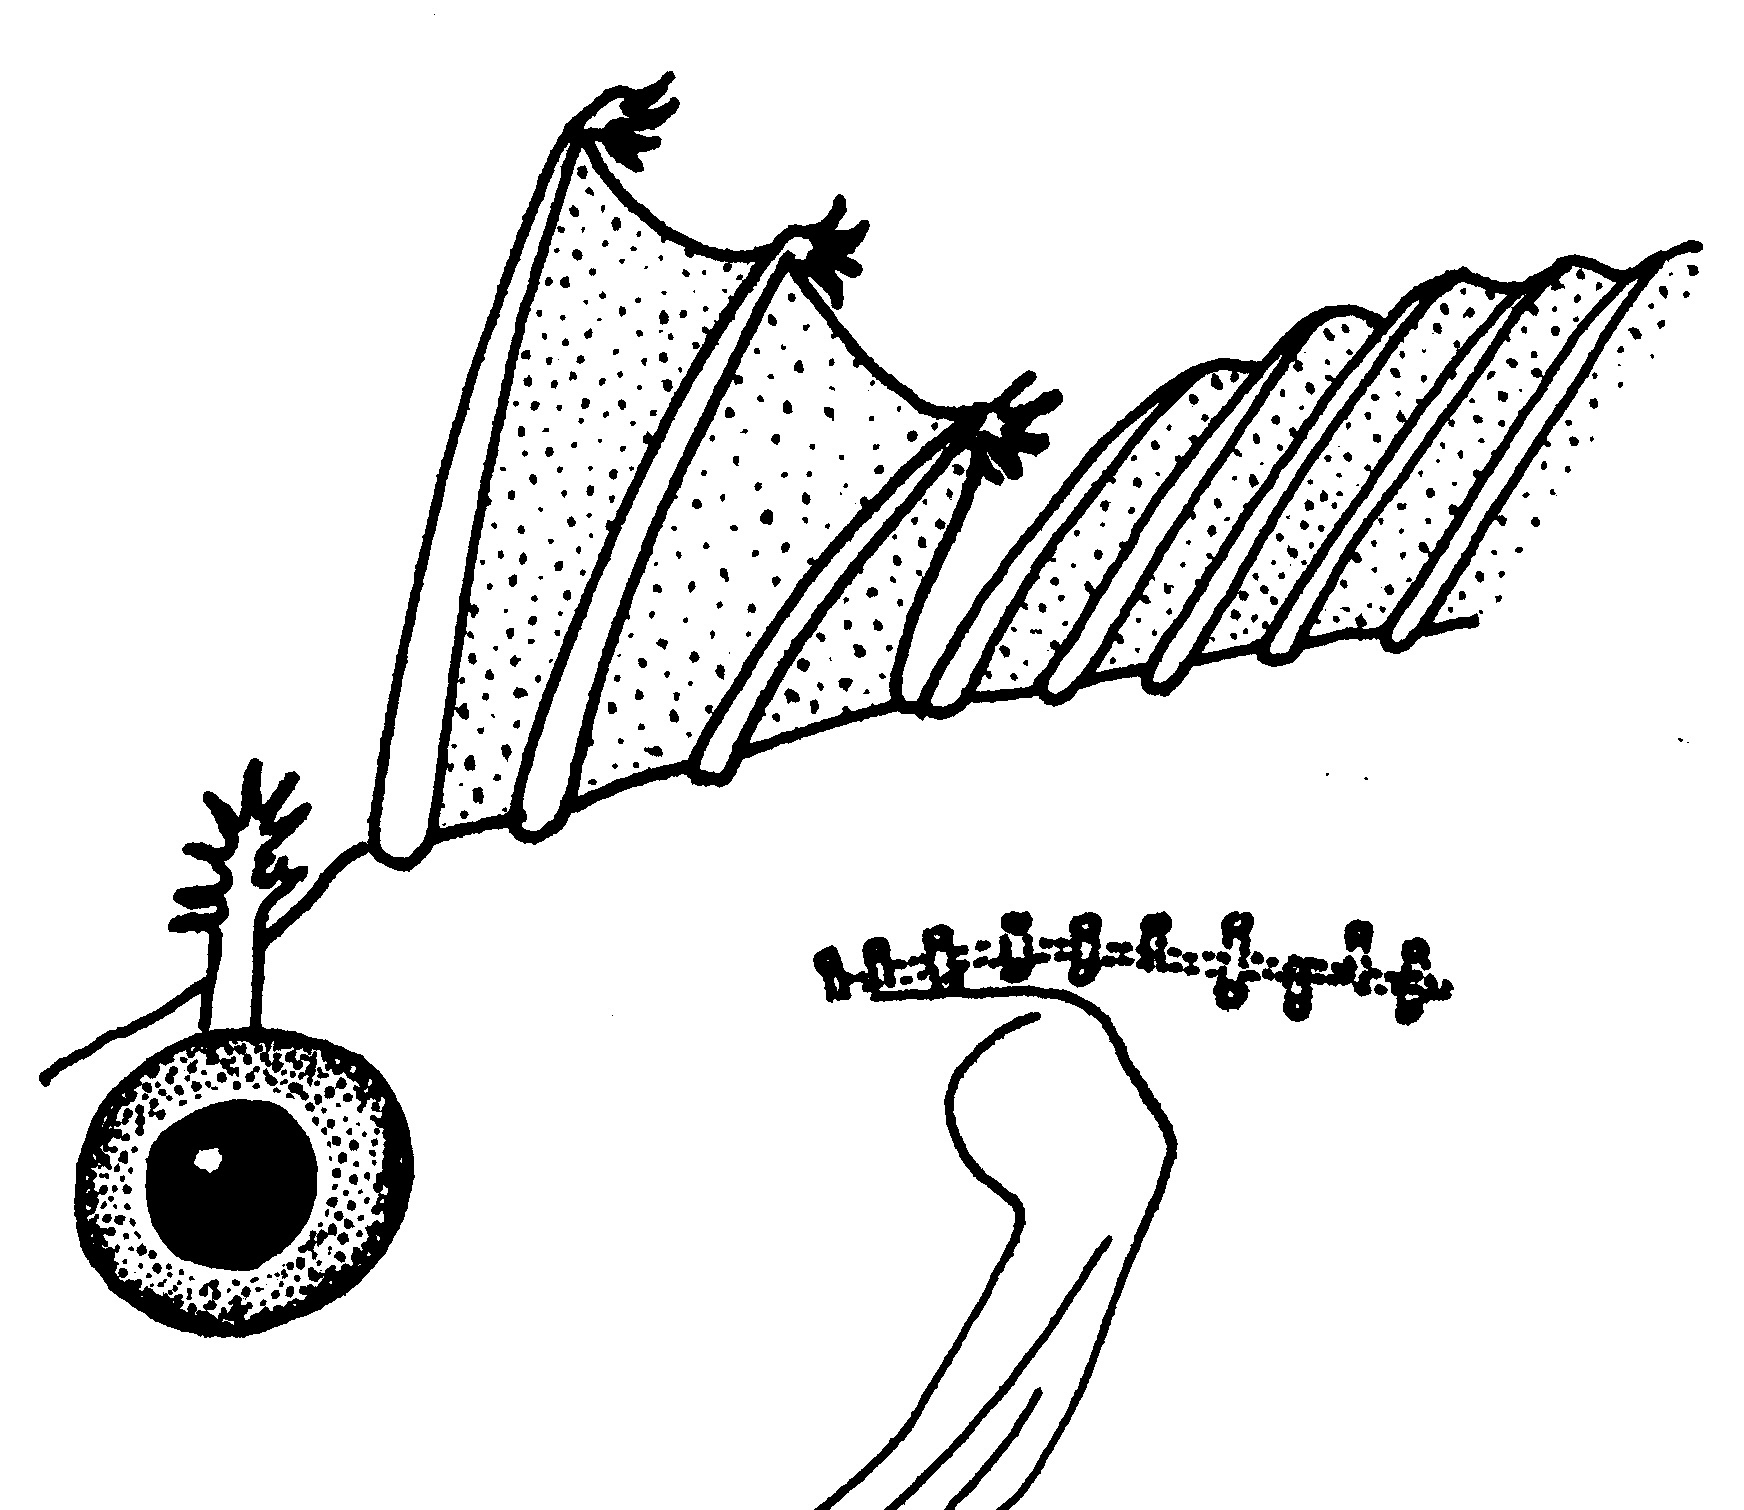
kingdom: Animalia
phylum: Chordata
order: Perciformes
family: Clinidae
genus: Clinus
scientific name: Clinus woodi
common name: Oldman klipfish
